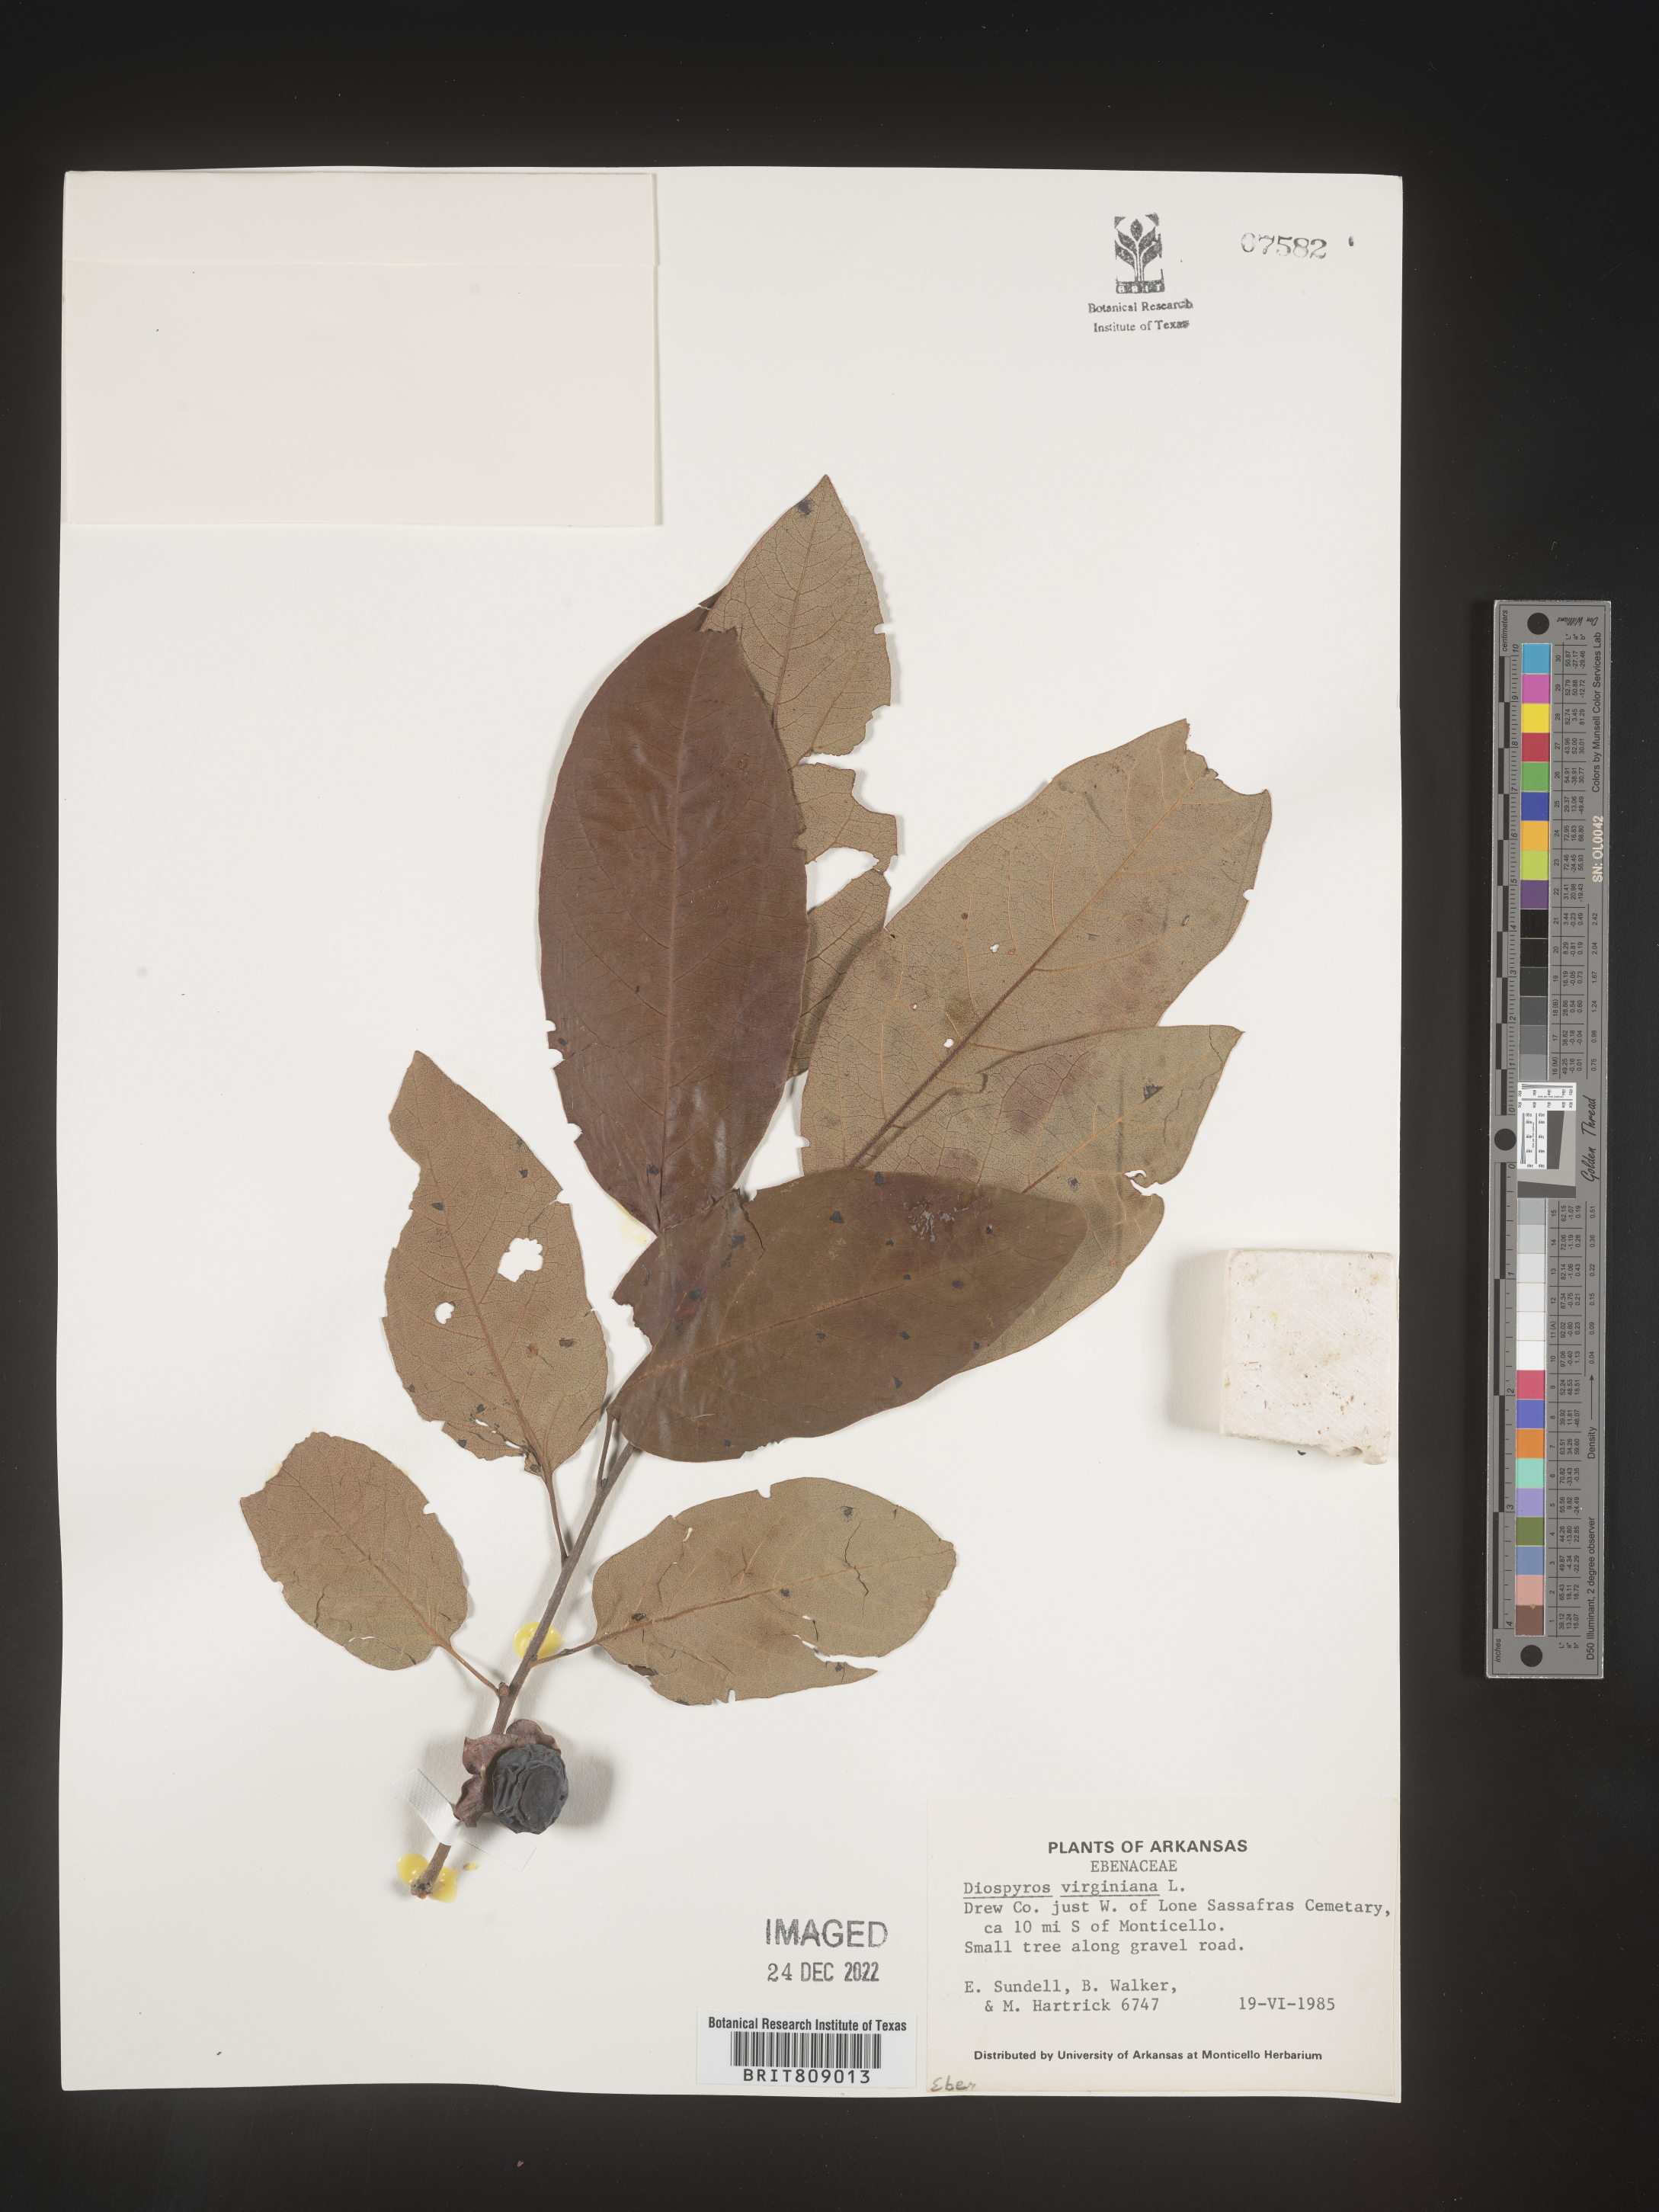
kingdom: Plantae
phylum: Tracheophyta
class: Magnoliopsida
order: Ericales
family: Ebenaceae
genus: Diospyros
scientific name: Diospyros virginiana
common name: Persimmon
